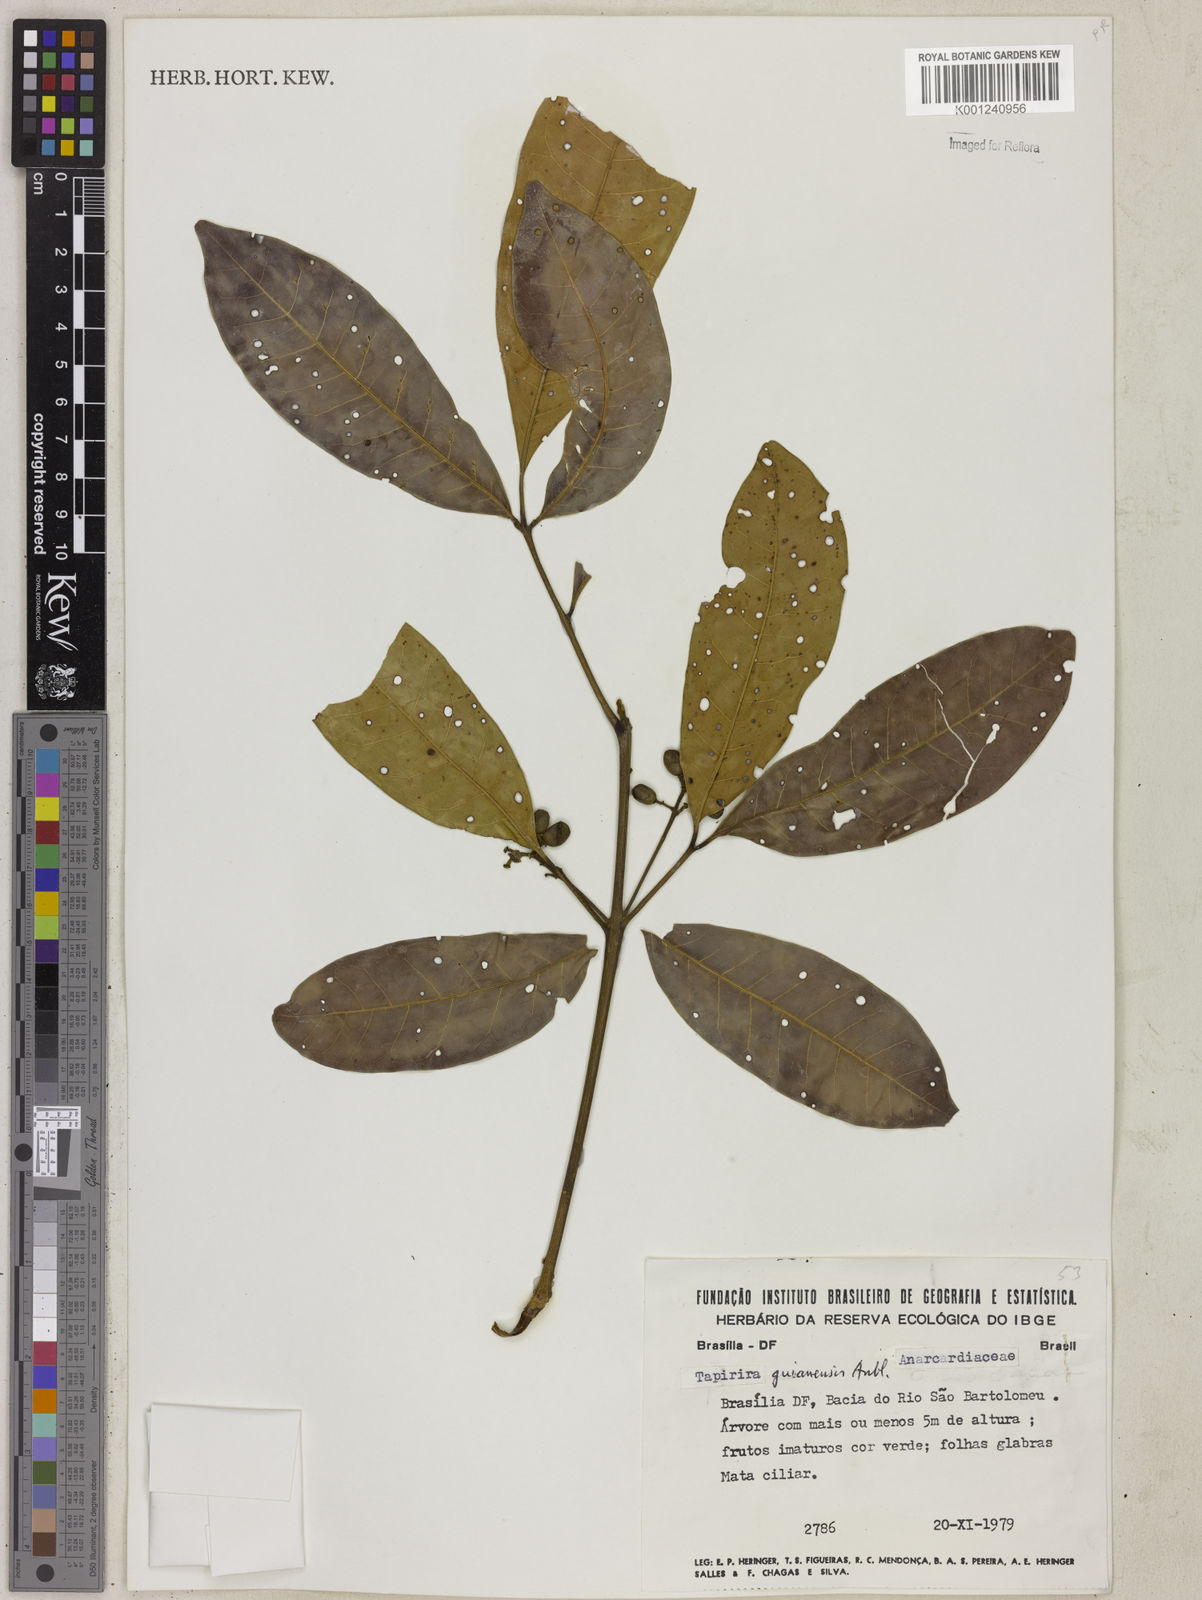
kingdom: Plantae
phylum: Tracheophyta
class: Magnoliopsida
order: Sapindales
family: Anacardiaceae
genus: Tapirira
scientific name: Tapirira guianensis
